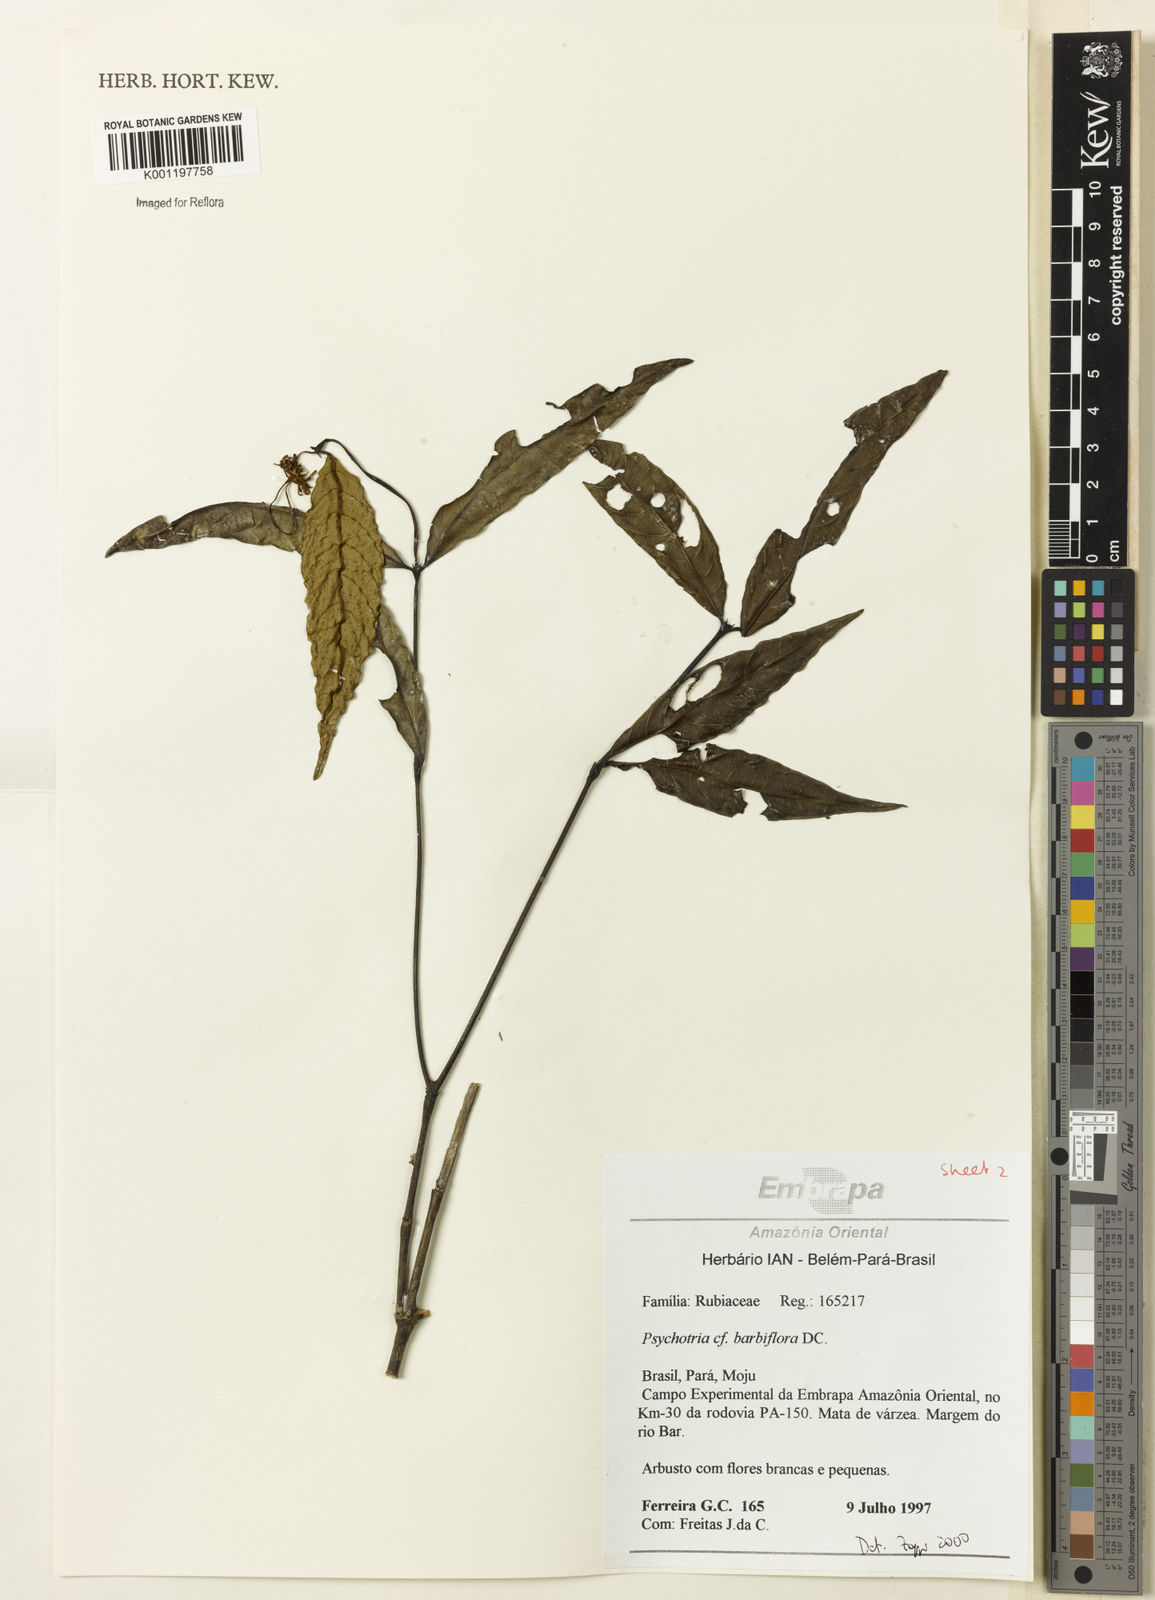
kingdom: Plantae
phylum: Tracheophyta
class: Magnoliopsida
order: Gentianales
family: Rubiaceae
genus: Palicourea
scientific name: Palicourea hoffmannseggiana
